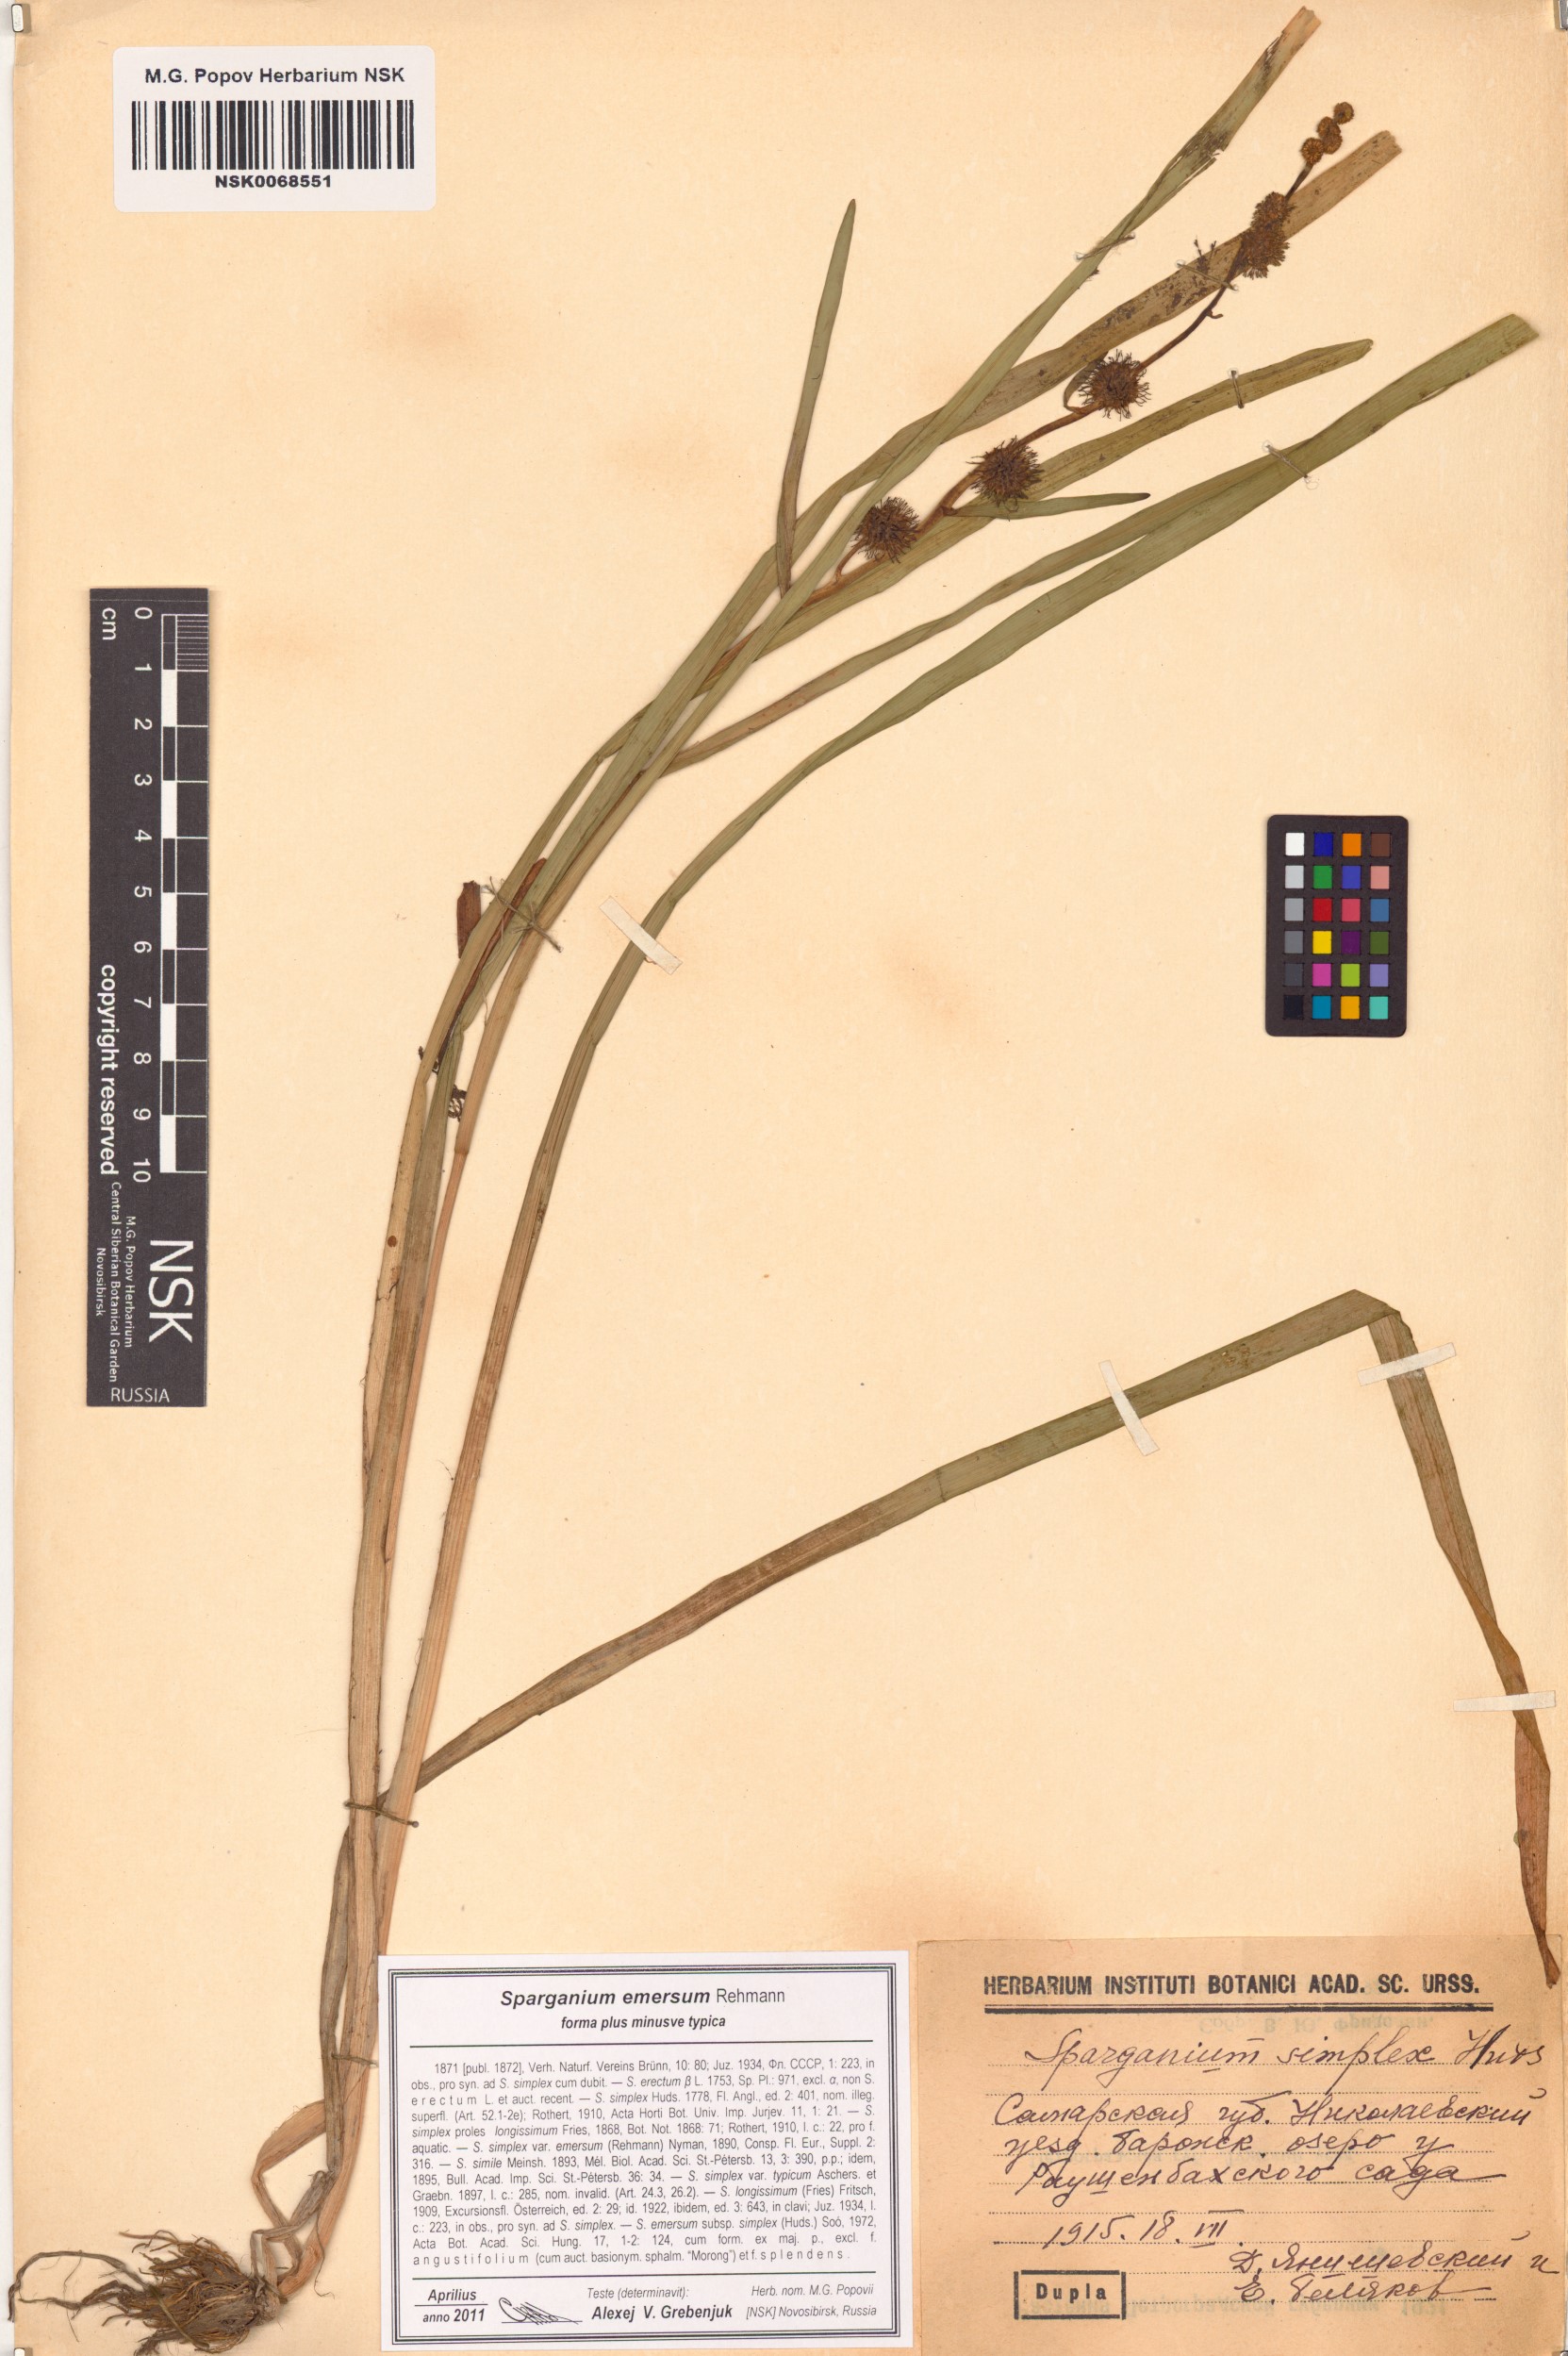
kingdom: Plantae
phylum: Tracheophyta
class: Liliopsida
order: Poales
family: Typhaceae
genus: Sparganium
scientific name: Sparganium emersum
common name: Unbranched bur-reed
